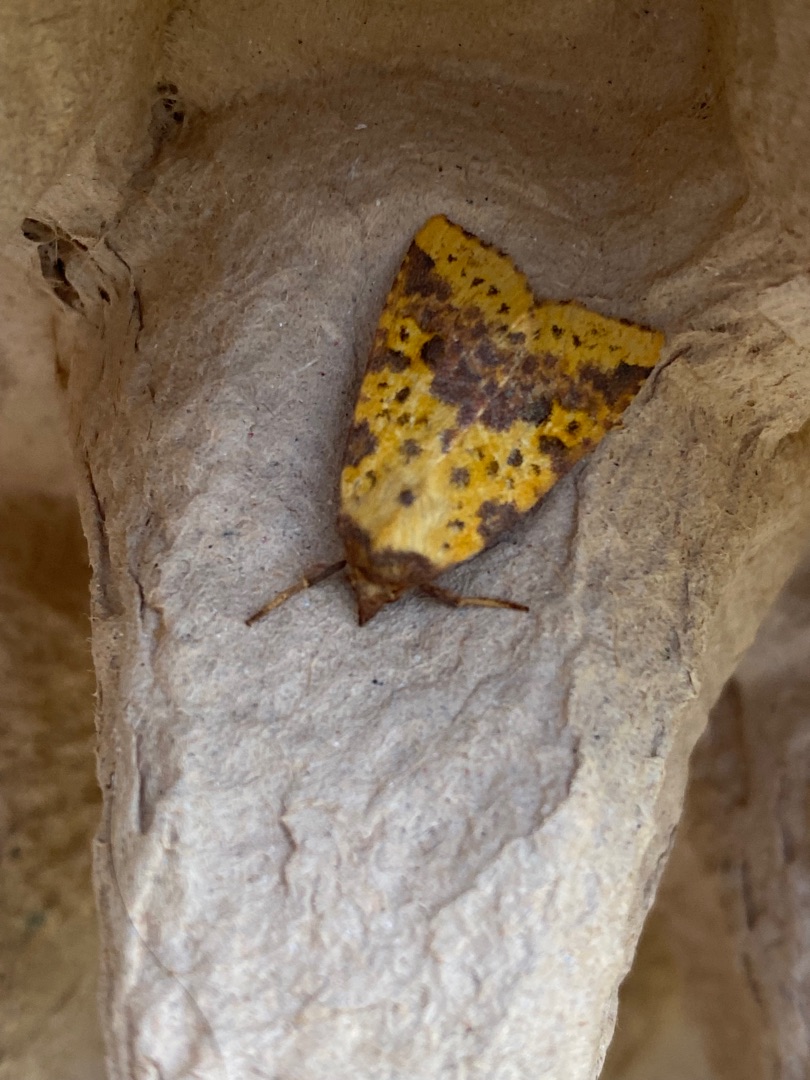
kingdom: Animalia
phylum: Arthropoda
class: Insecta
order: Lepidoptera
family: Noctuidae
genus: Xanthia
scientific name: Xanthia togata
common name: Toga-septemberugle
